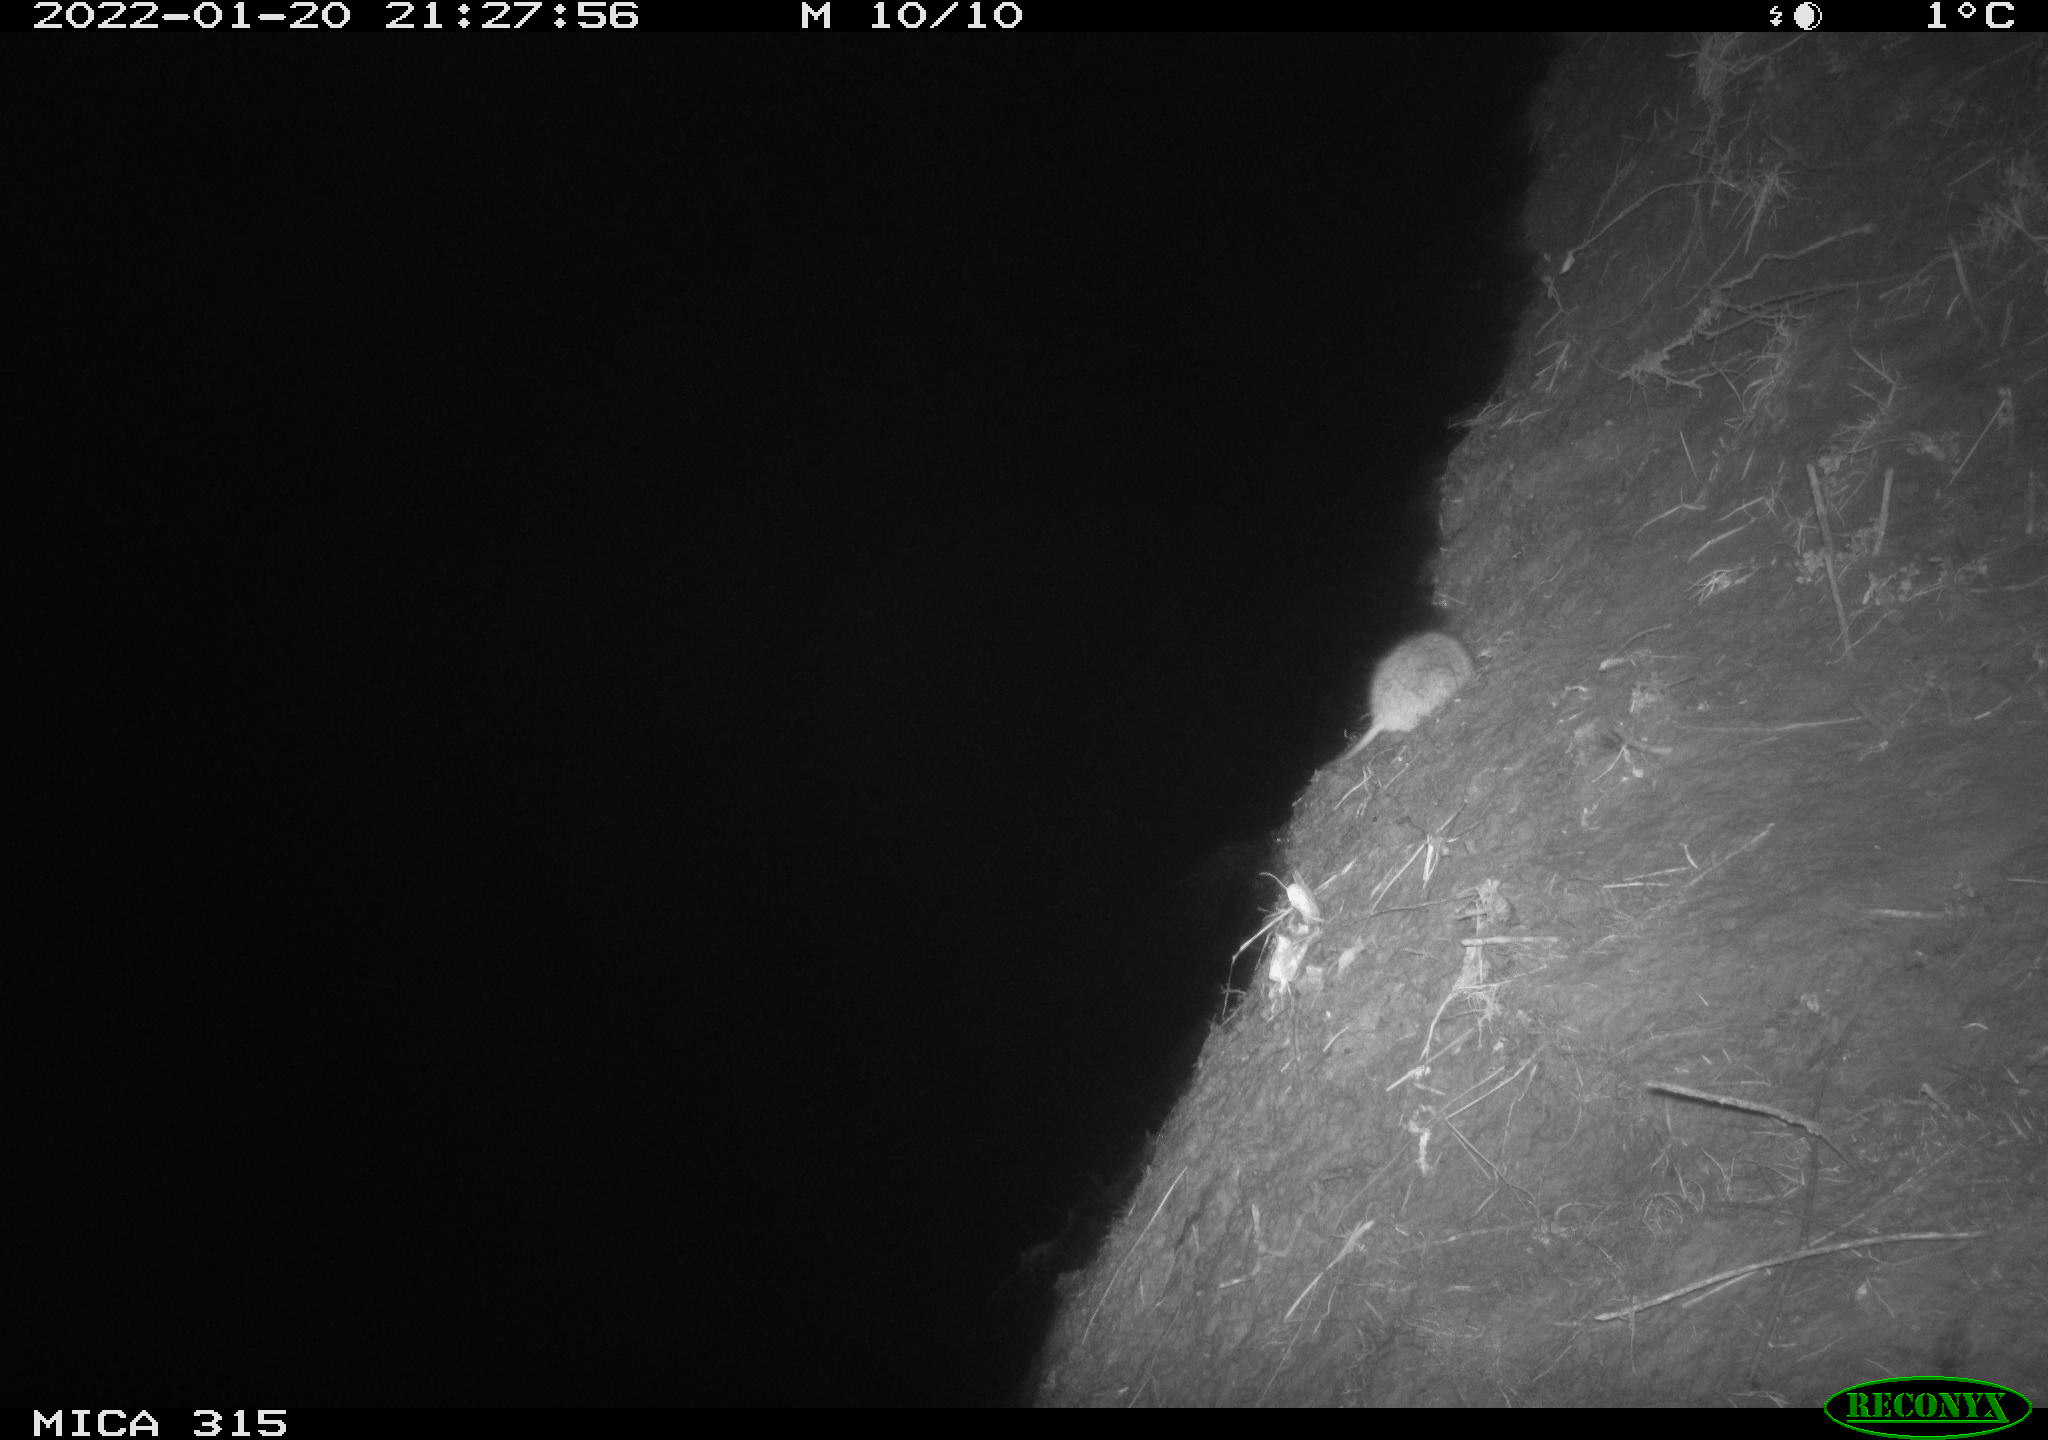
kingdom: Animalia
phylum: Chordata
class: Mammalia
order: Rodentia
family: Muridae
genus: Rattus
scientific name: Rattus norvegicus
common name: Brown rat
